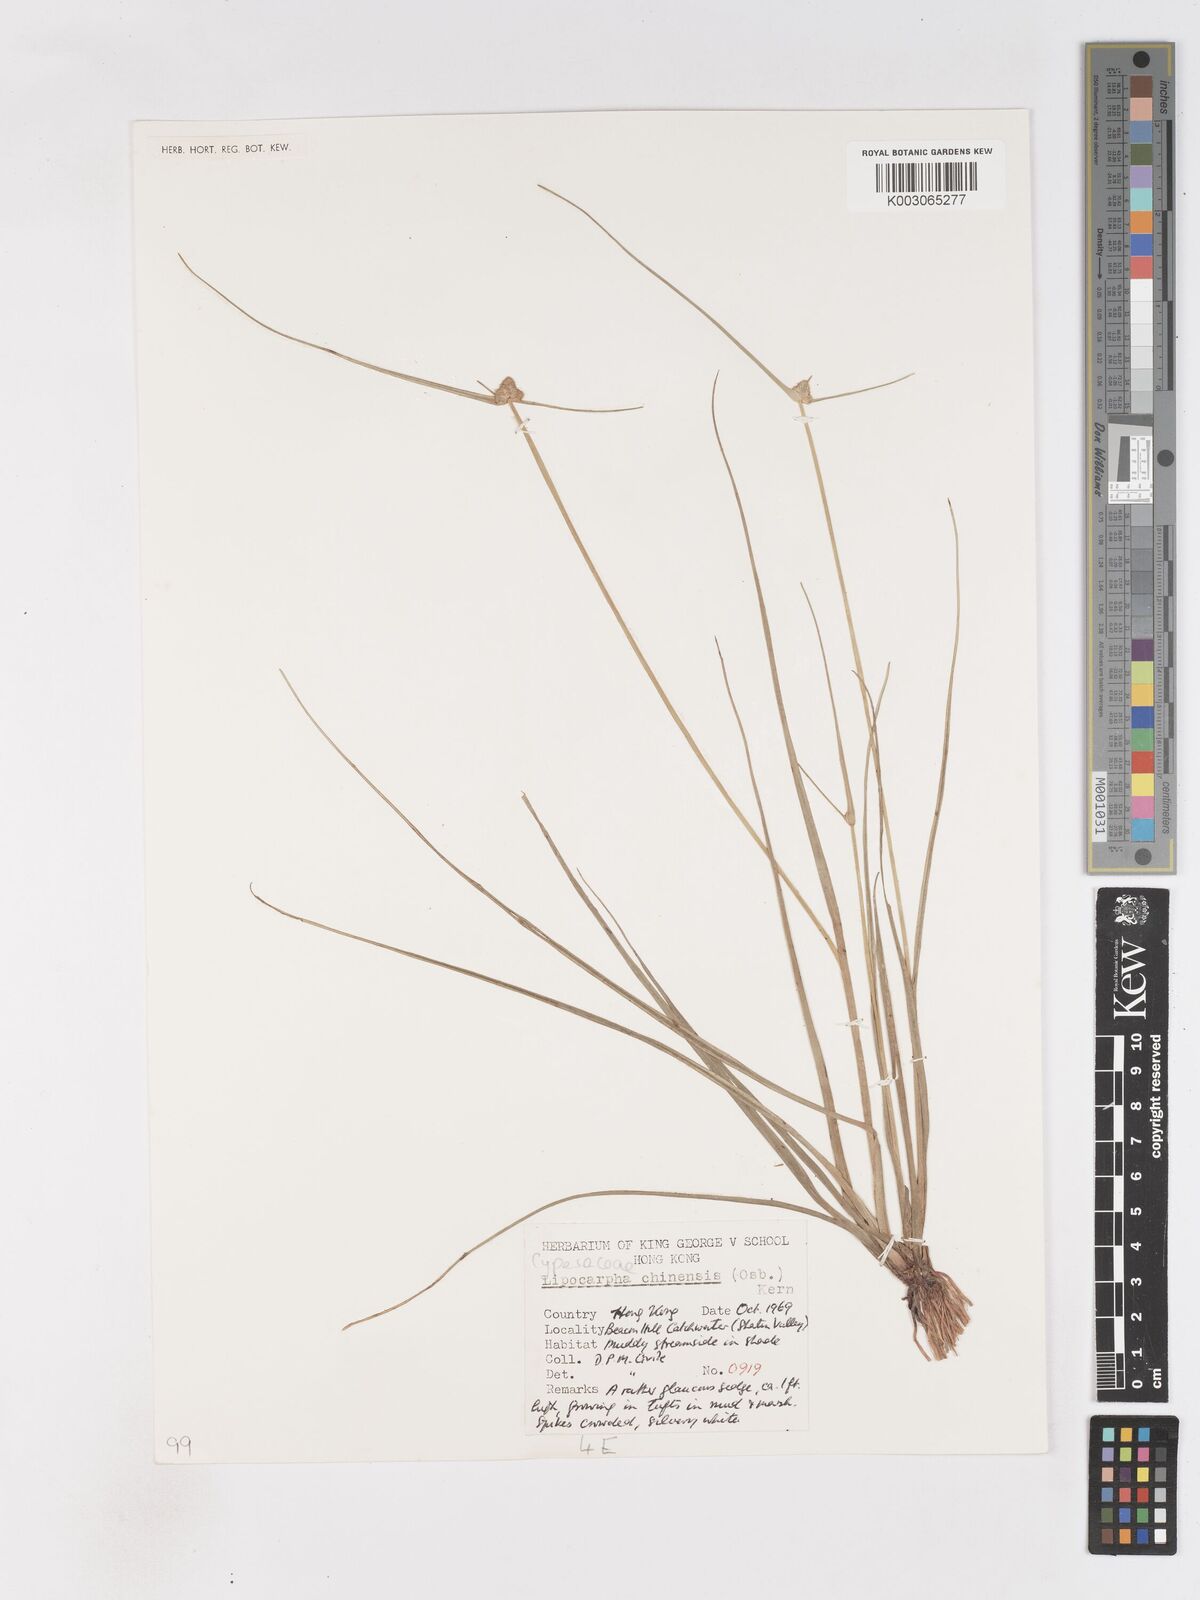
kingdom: Plantae
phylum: Tracheophyta
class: Liliopsida
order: Poales
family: Cyperaceae
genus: Cyperus
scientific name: Cyperus albescens
